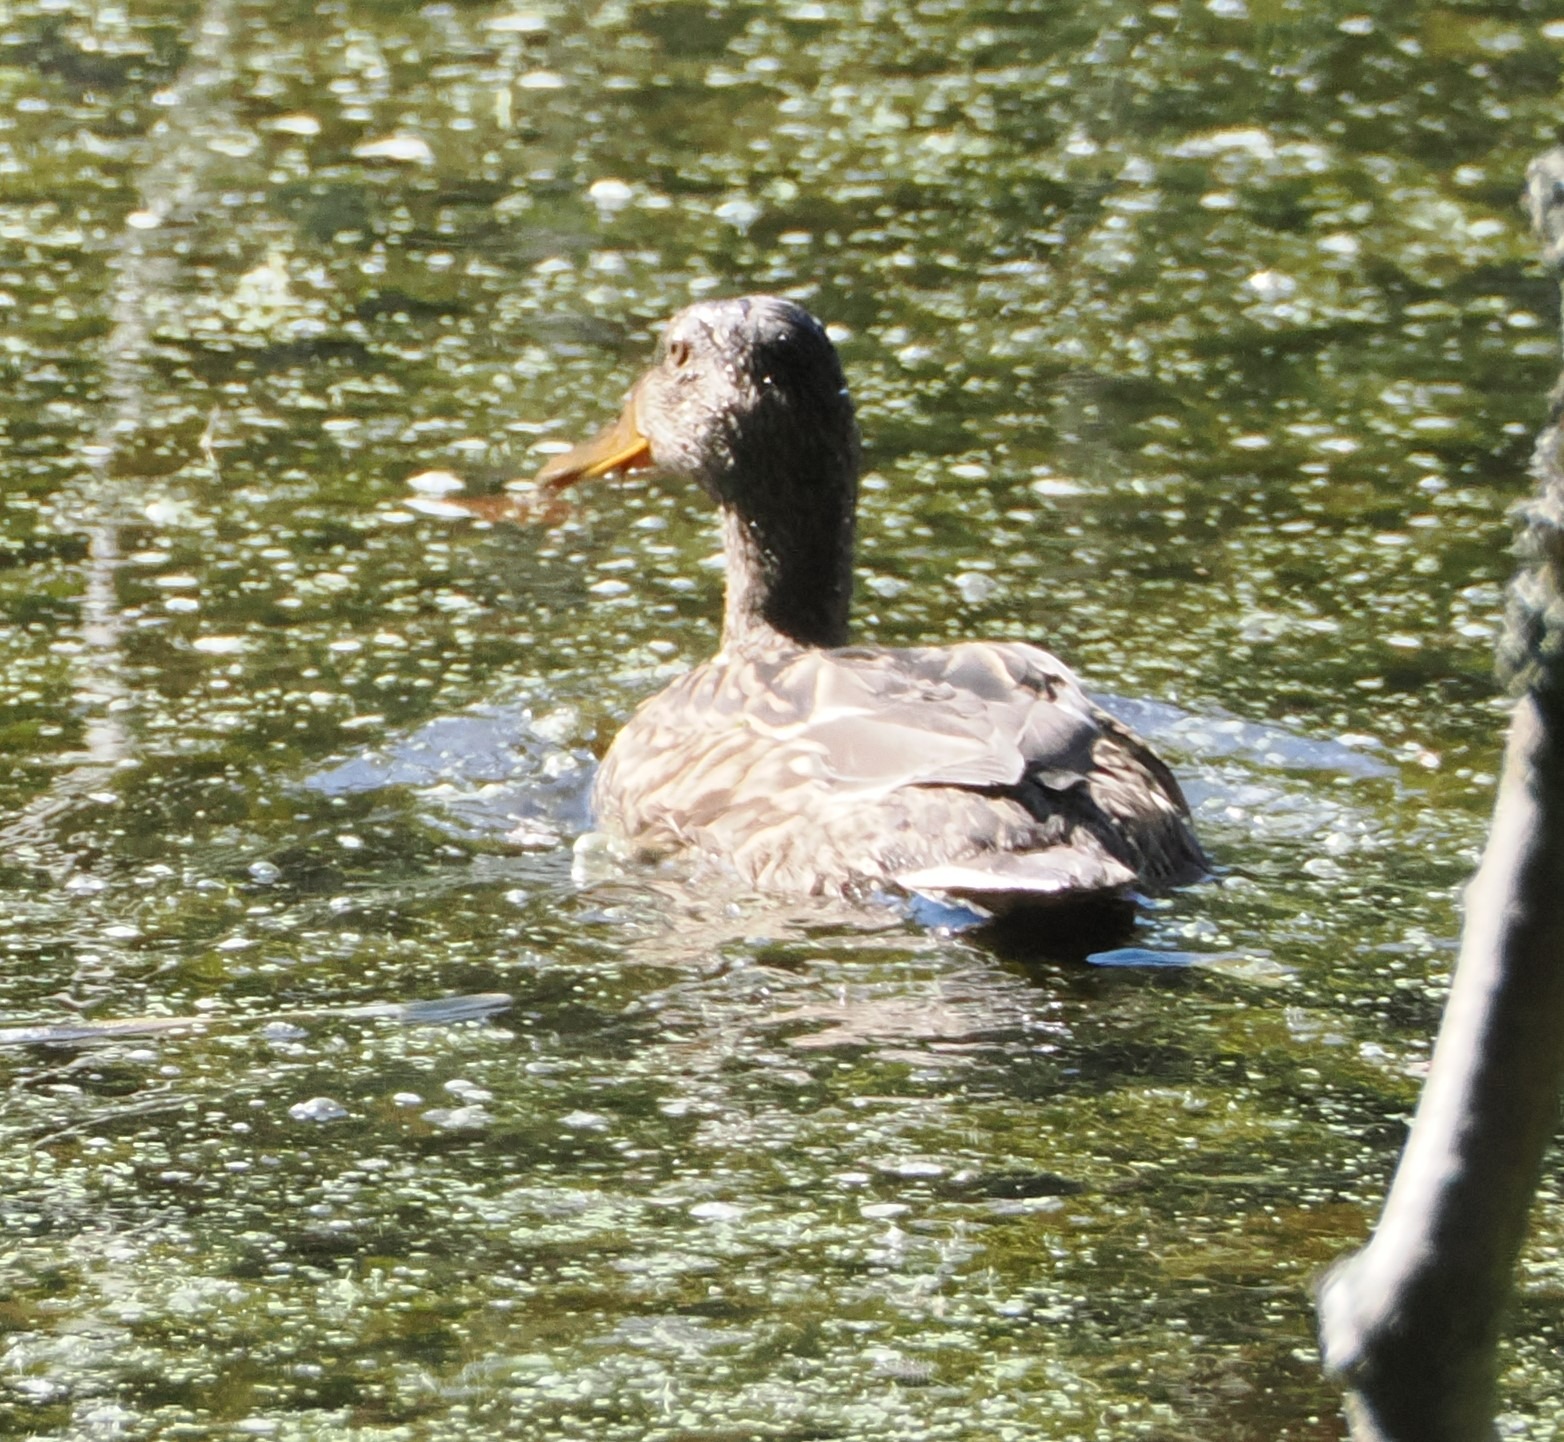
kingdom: Animalia
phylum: Chordata
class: Aves
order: Anseriformes
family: Anatidae
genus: Anas
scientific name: Anas platyrhynchos
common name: Gråand
